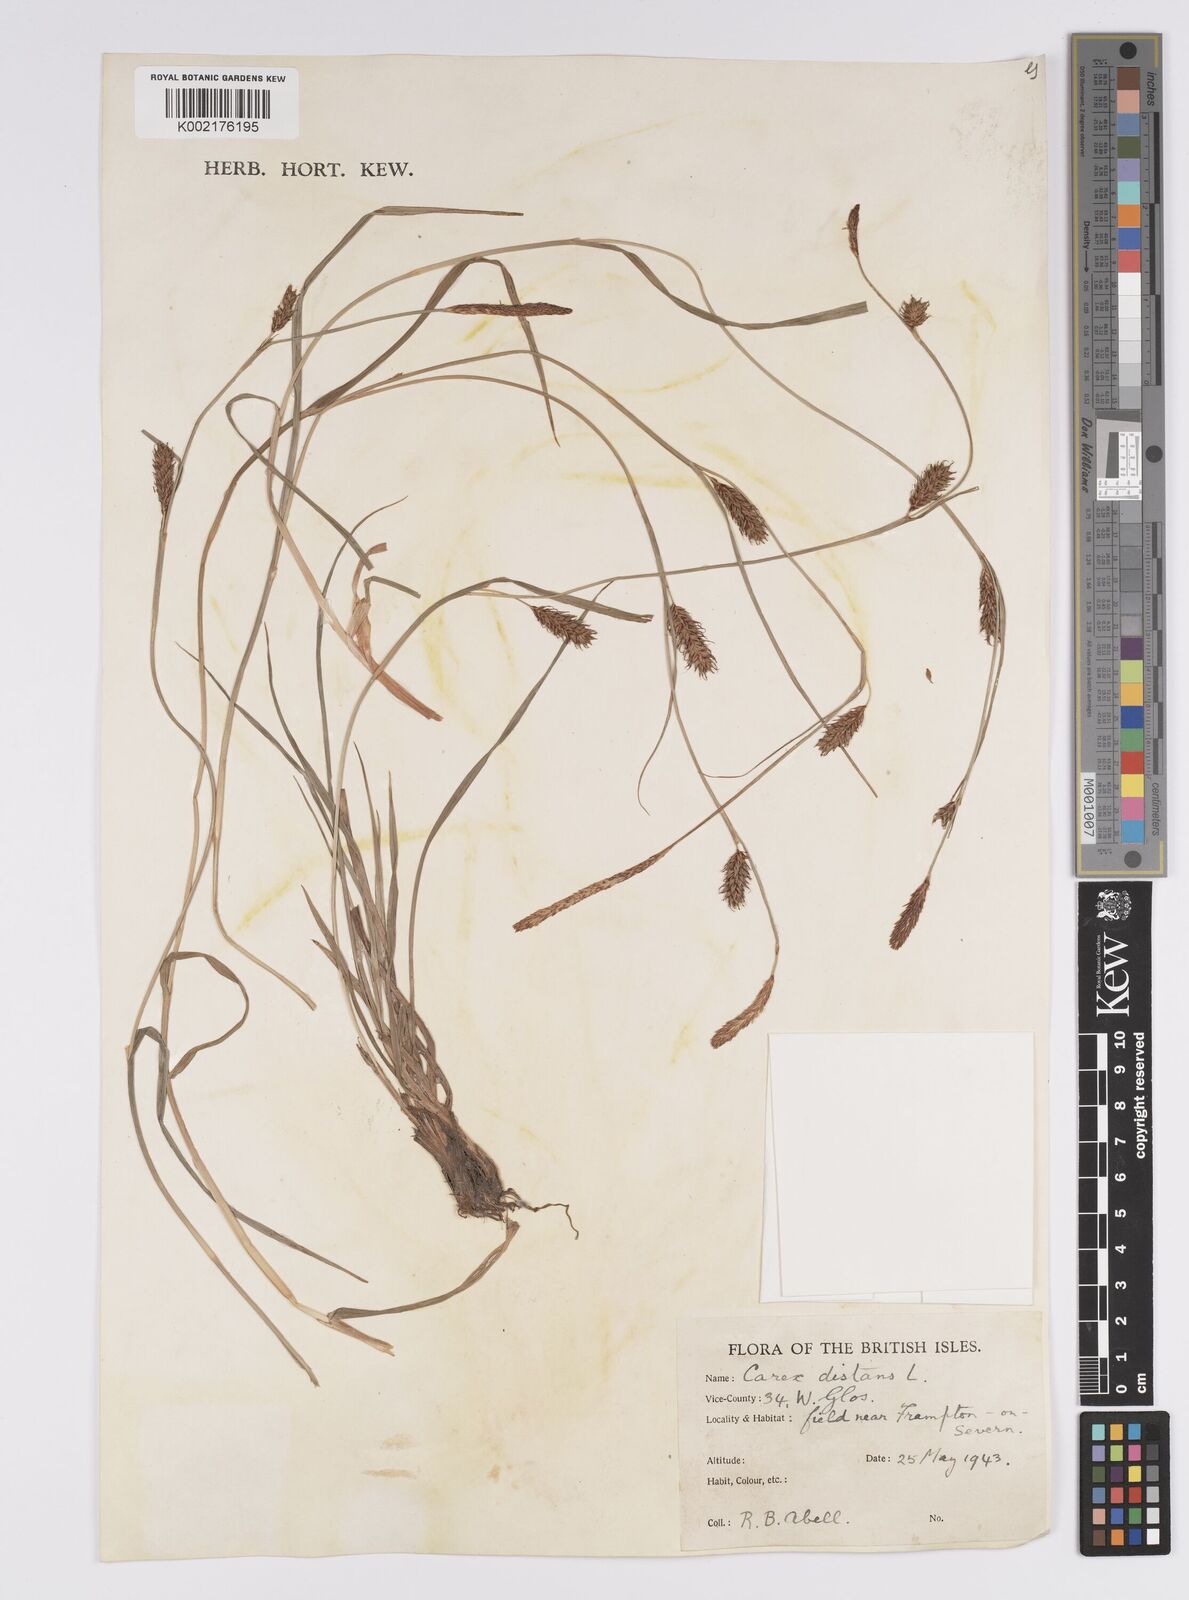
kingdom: Plantae
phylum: Tracheophyta
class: Liliopsida
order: Poales
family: Cyperaceae
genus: Carex
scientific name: Carex distans
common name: Distant sedge
